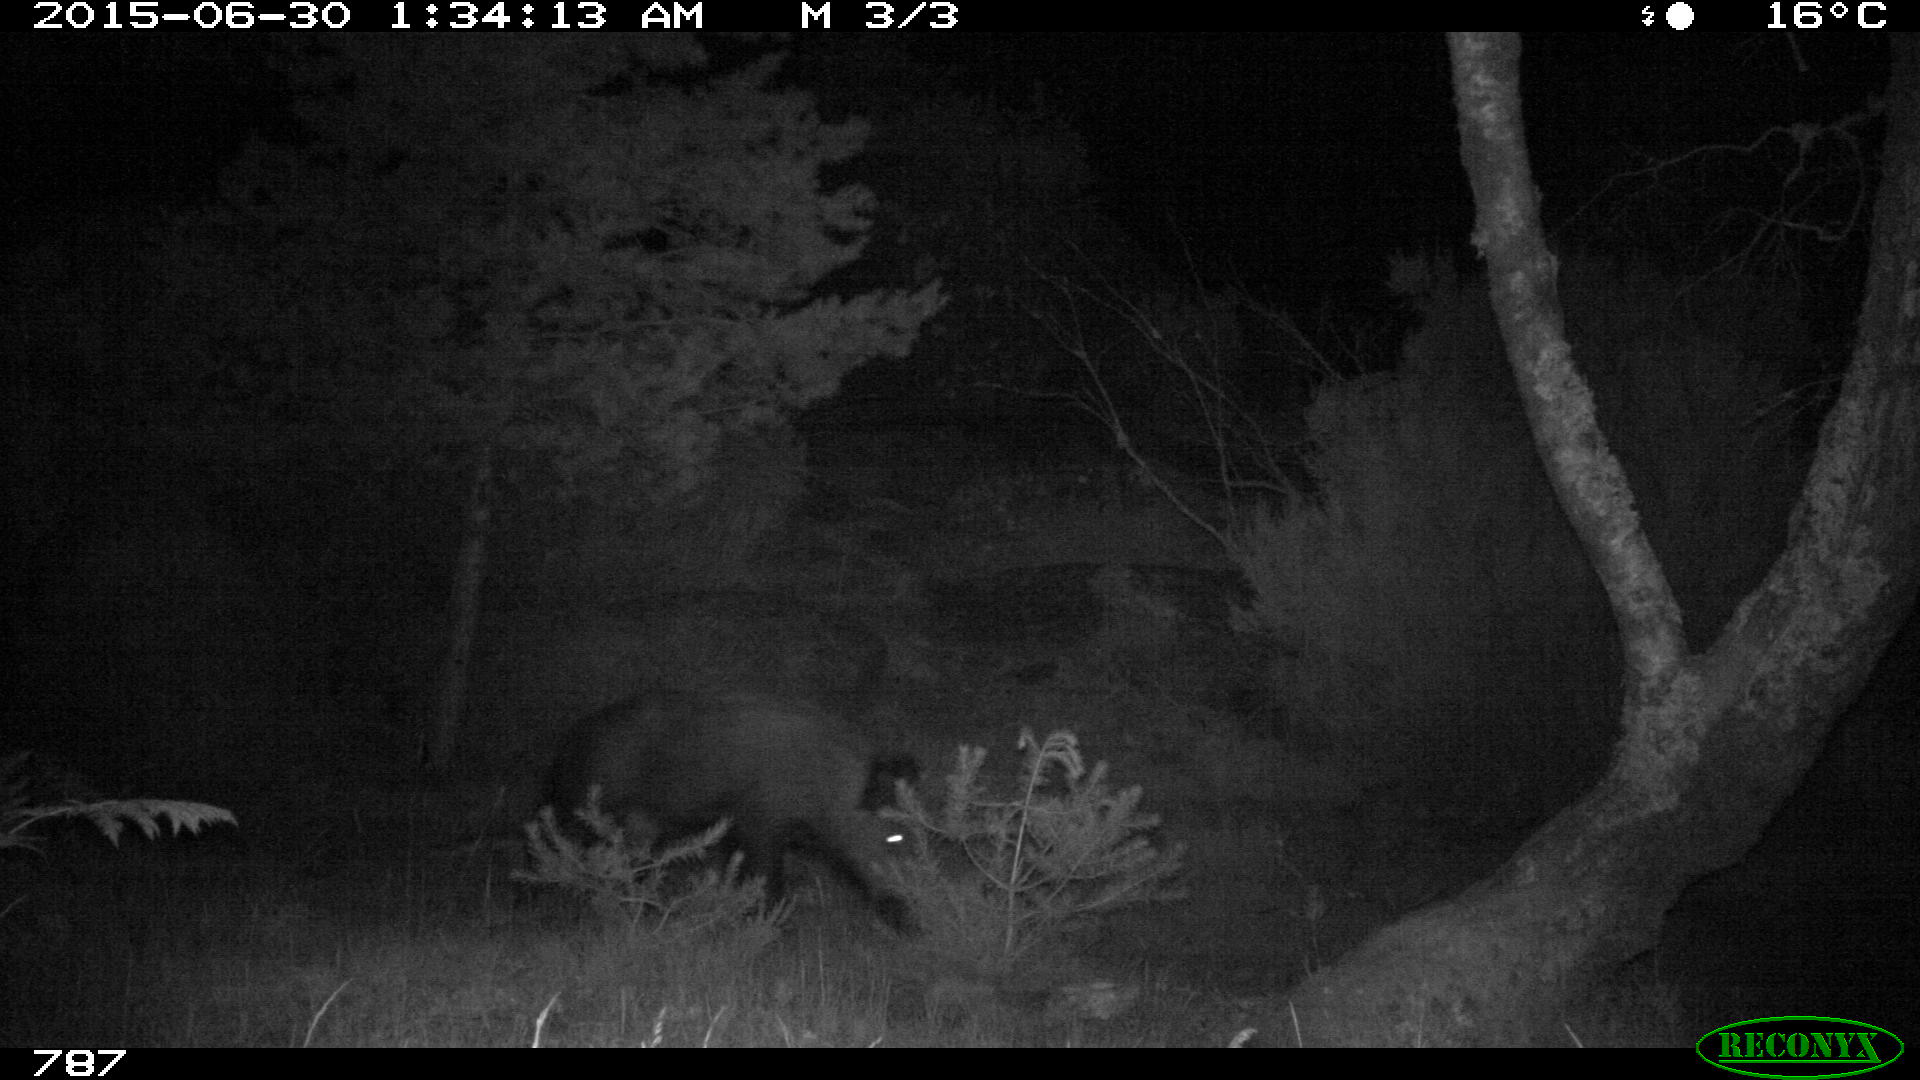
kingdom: Animalia
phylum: Chordata
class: Mammalia
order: Artiodactyla
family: Suidae
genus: Sus
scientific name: Sus scrofa
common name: Wild boar
